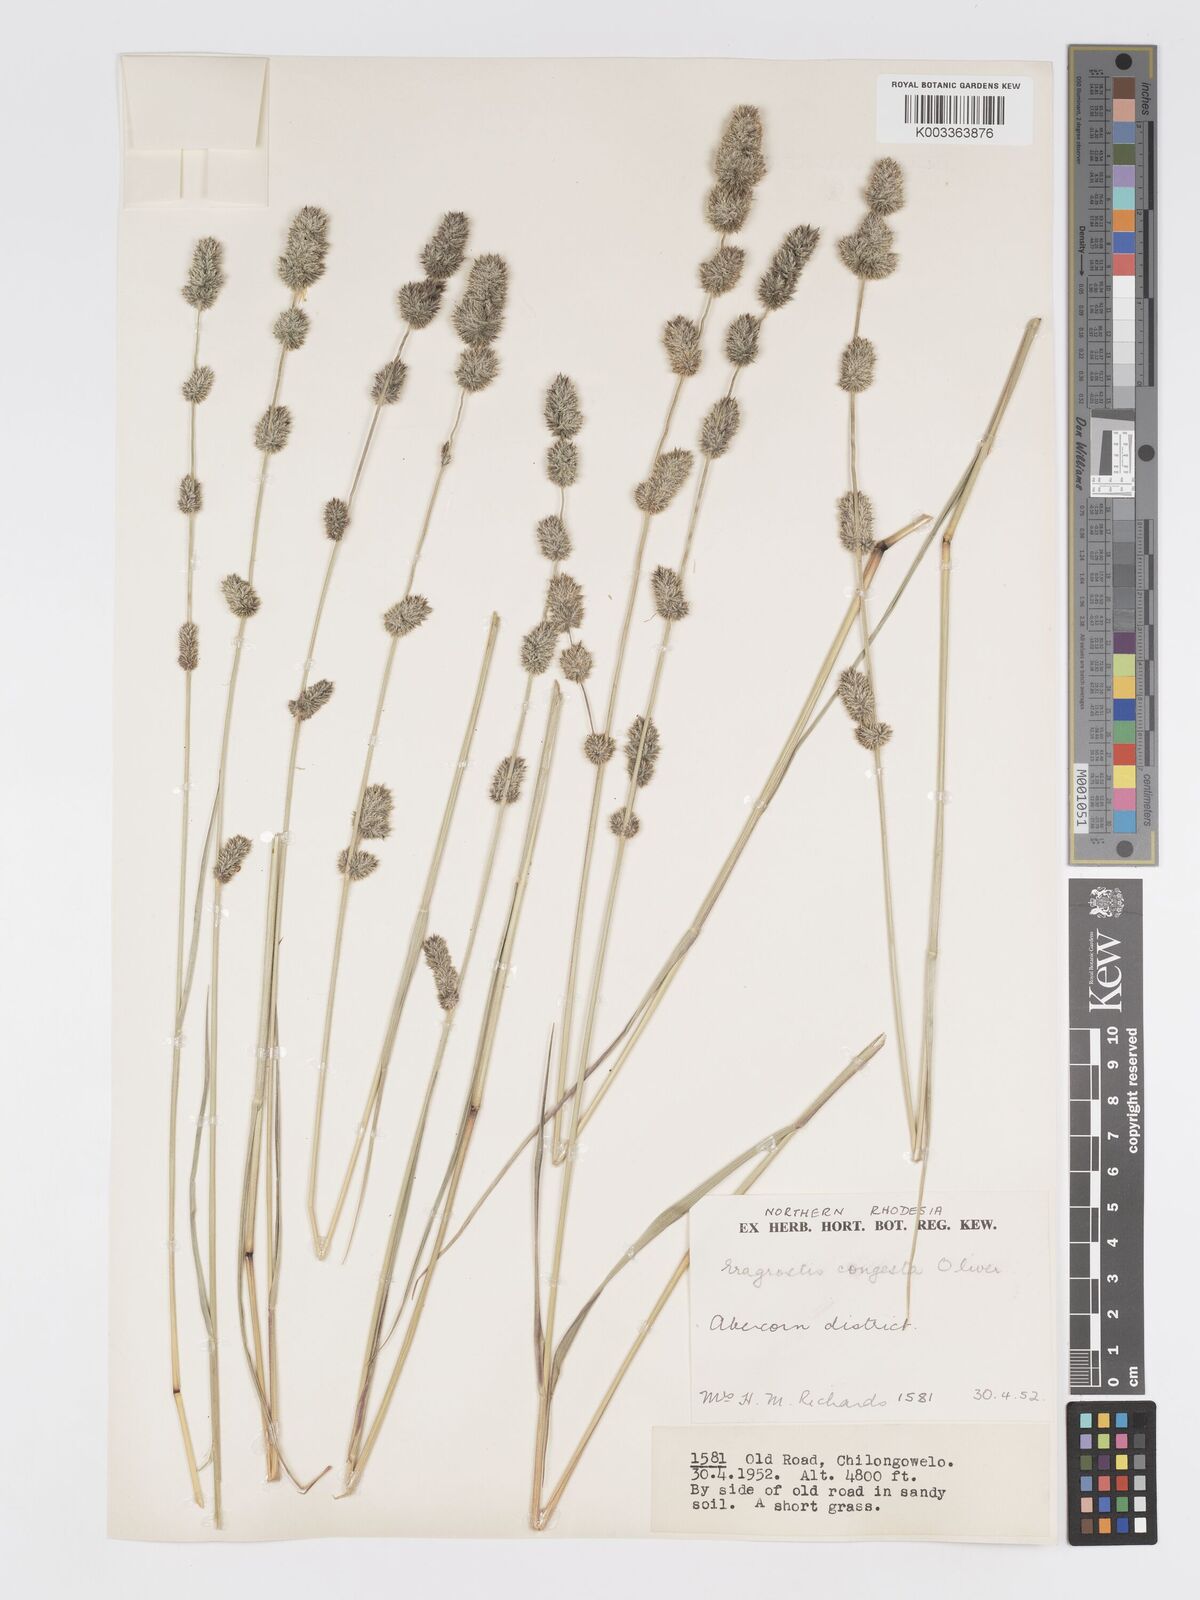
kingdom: Plantae
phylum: Tracheophyta
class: Liliopsida
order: Poales
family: Poaceae
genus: Eragrostis
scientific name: Eragrostis congesta
